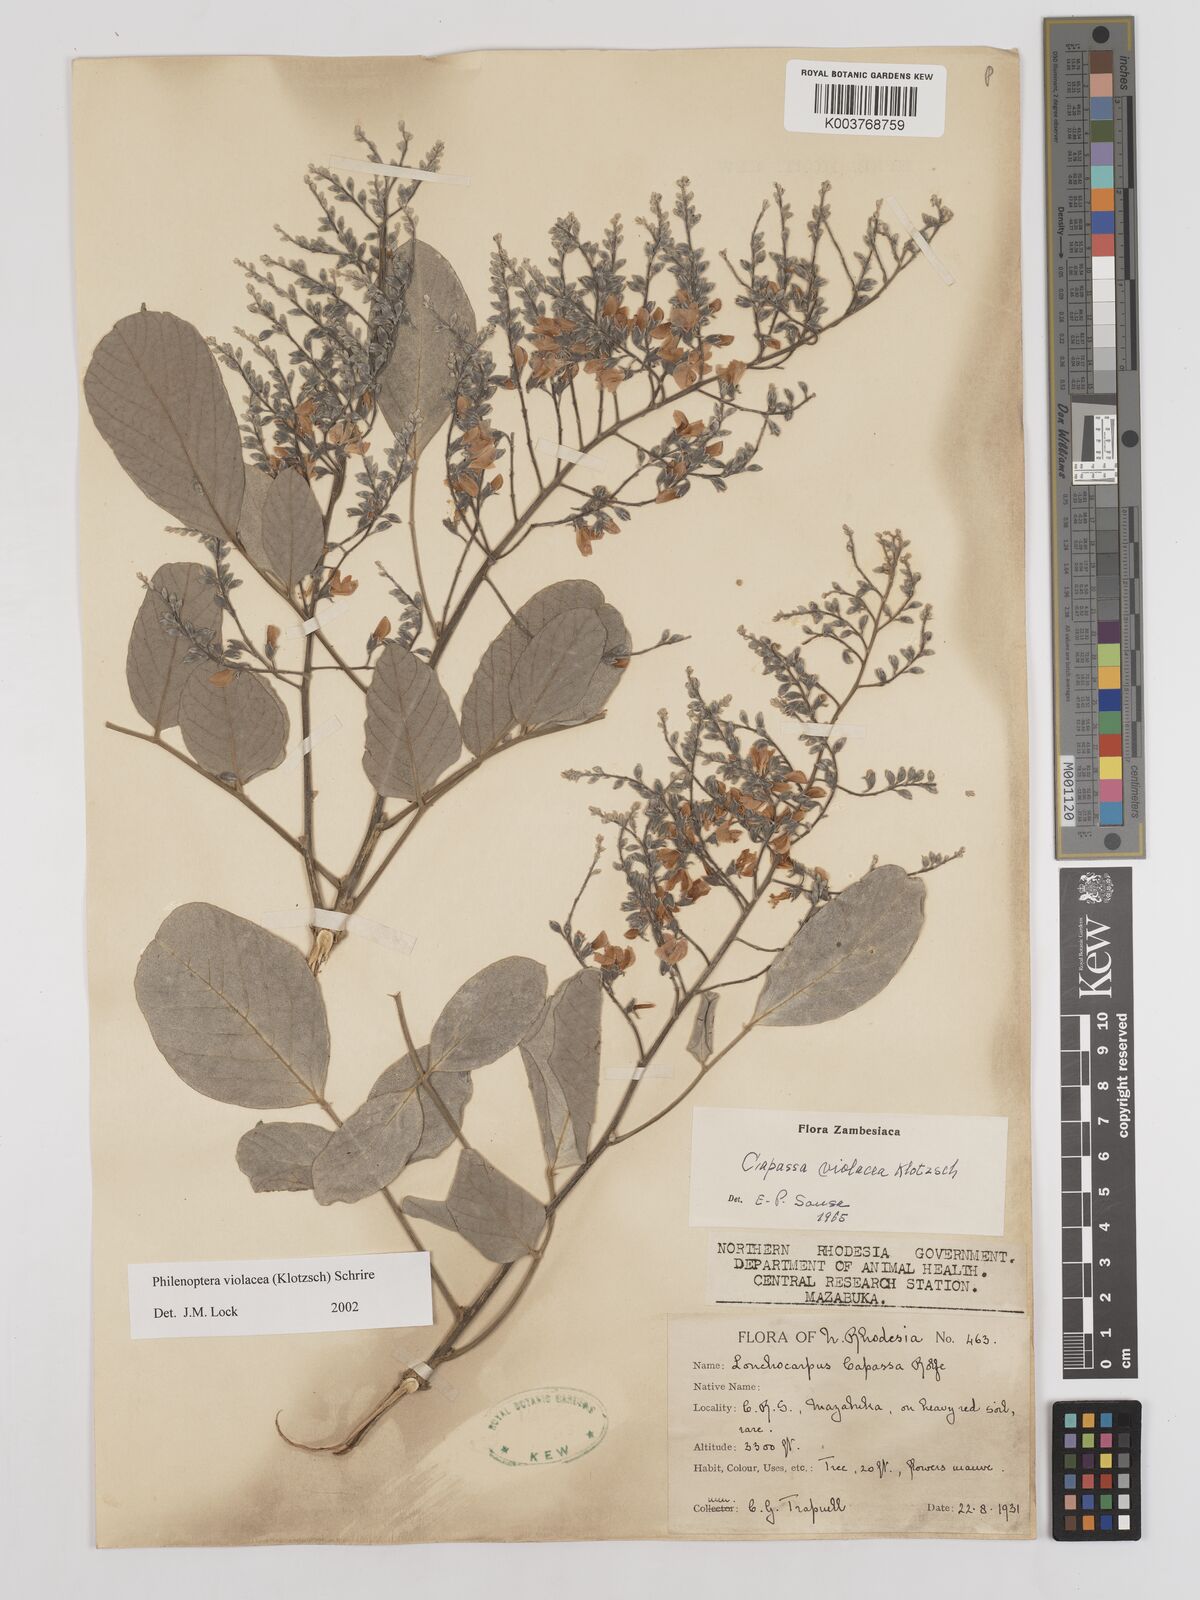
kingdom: Plantae
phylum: Tracheophyta
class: Magnoliopsida
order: Fabales
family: Fabaceae
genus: Philenoptera
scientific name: Philenoptera violacea
